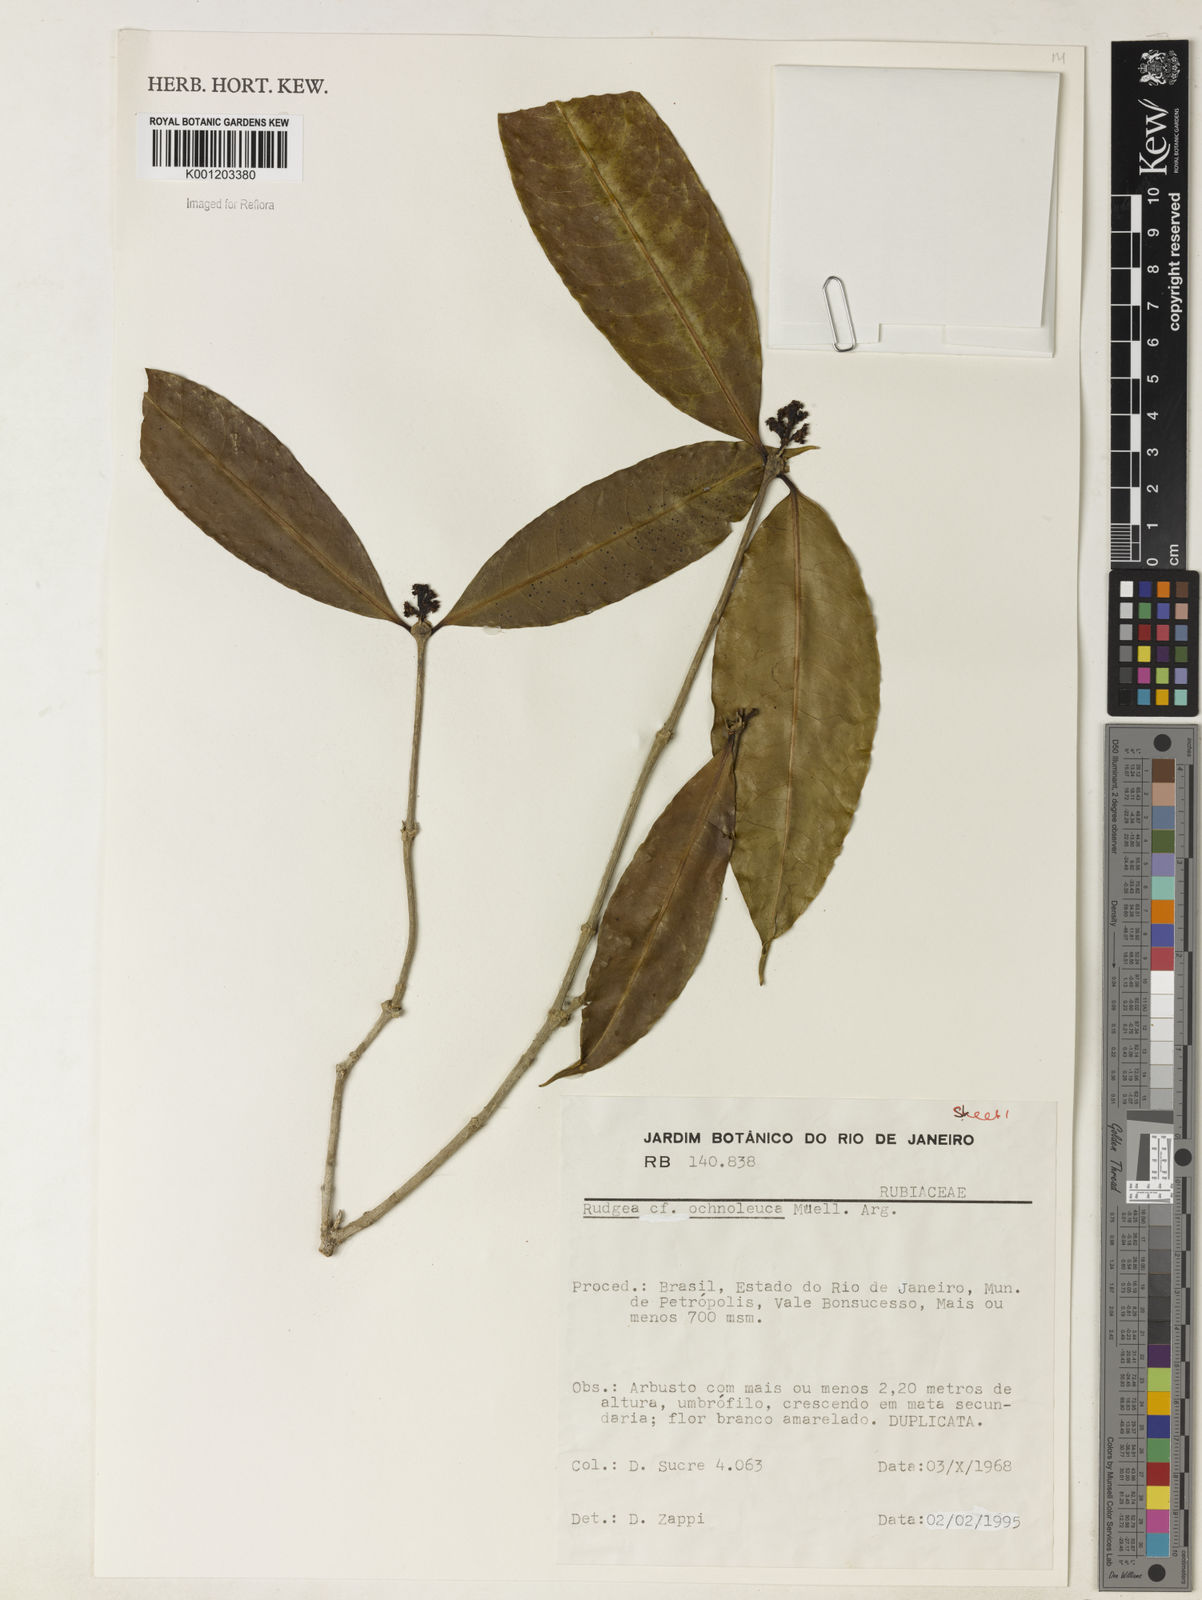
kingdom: Plantae
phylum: Tracheophyta
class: Magnoliopsida
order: Gentianales
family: Rubiaceae
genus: Rudgea
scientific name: Rudgea
